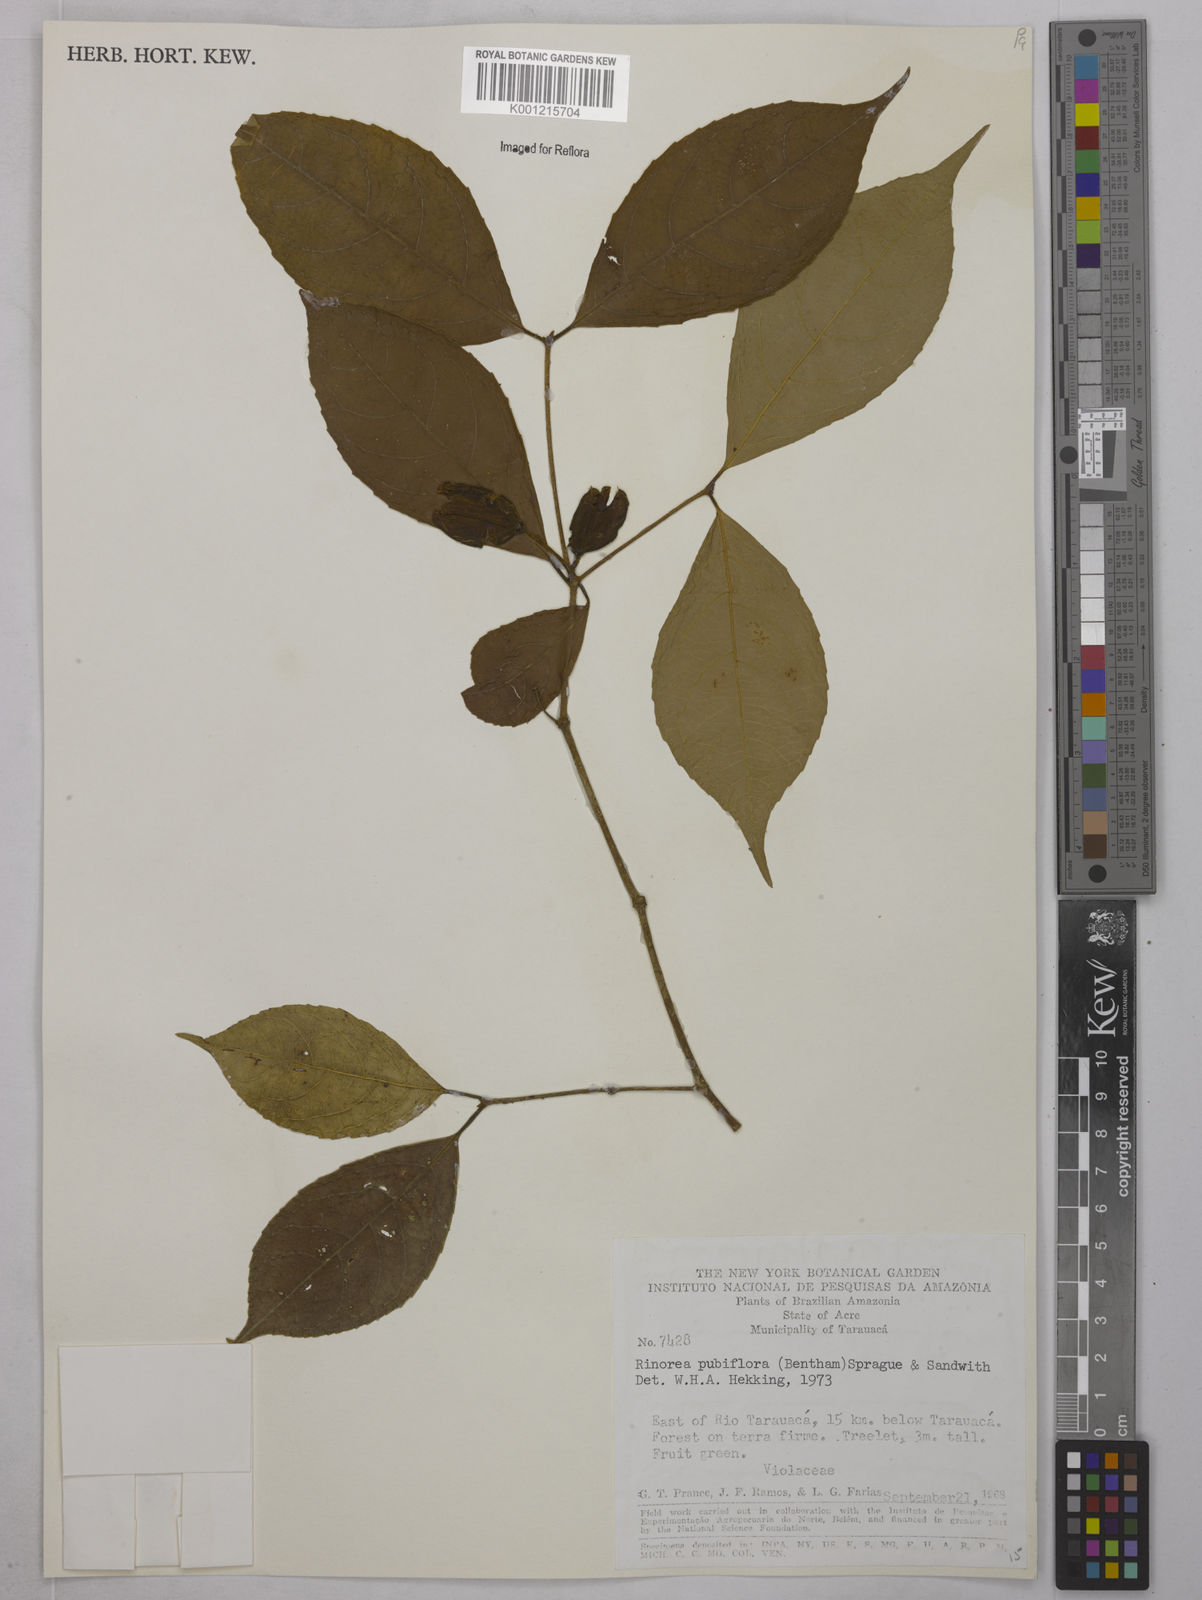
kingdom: Plantae
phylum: Tracheophyta
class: Magnoliopsida
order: Malpighiales
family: Violaceae
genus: Rinorea
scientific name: Rinorea pubiflora
